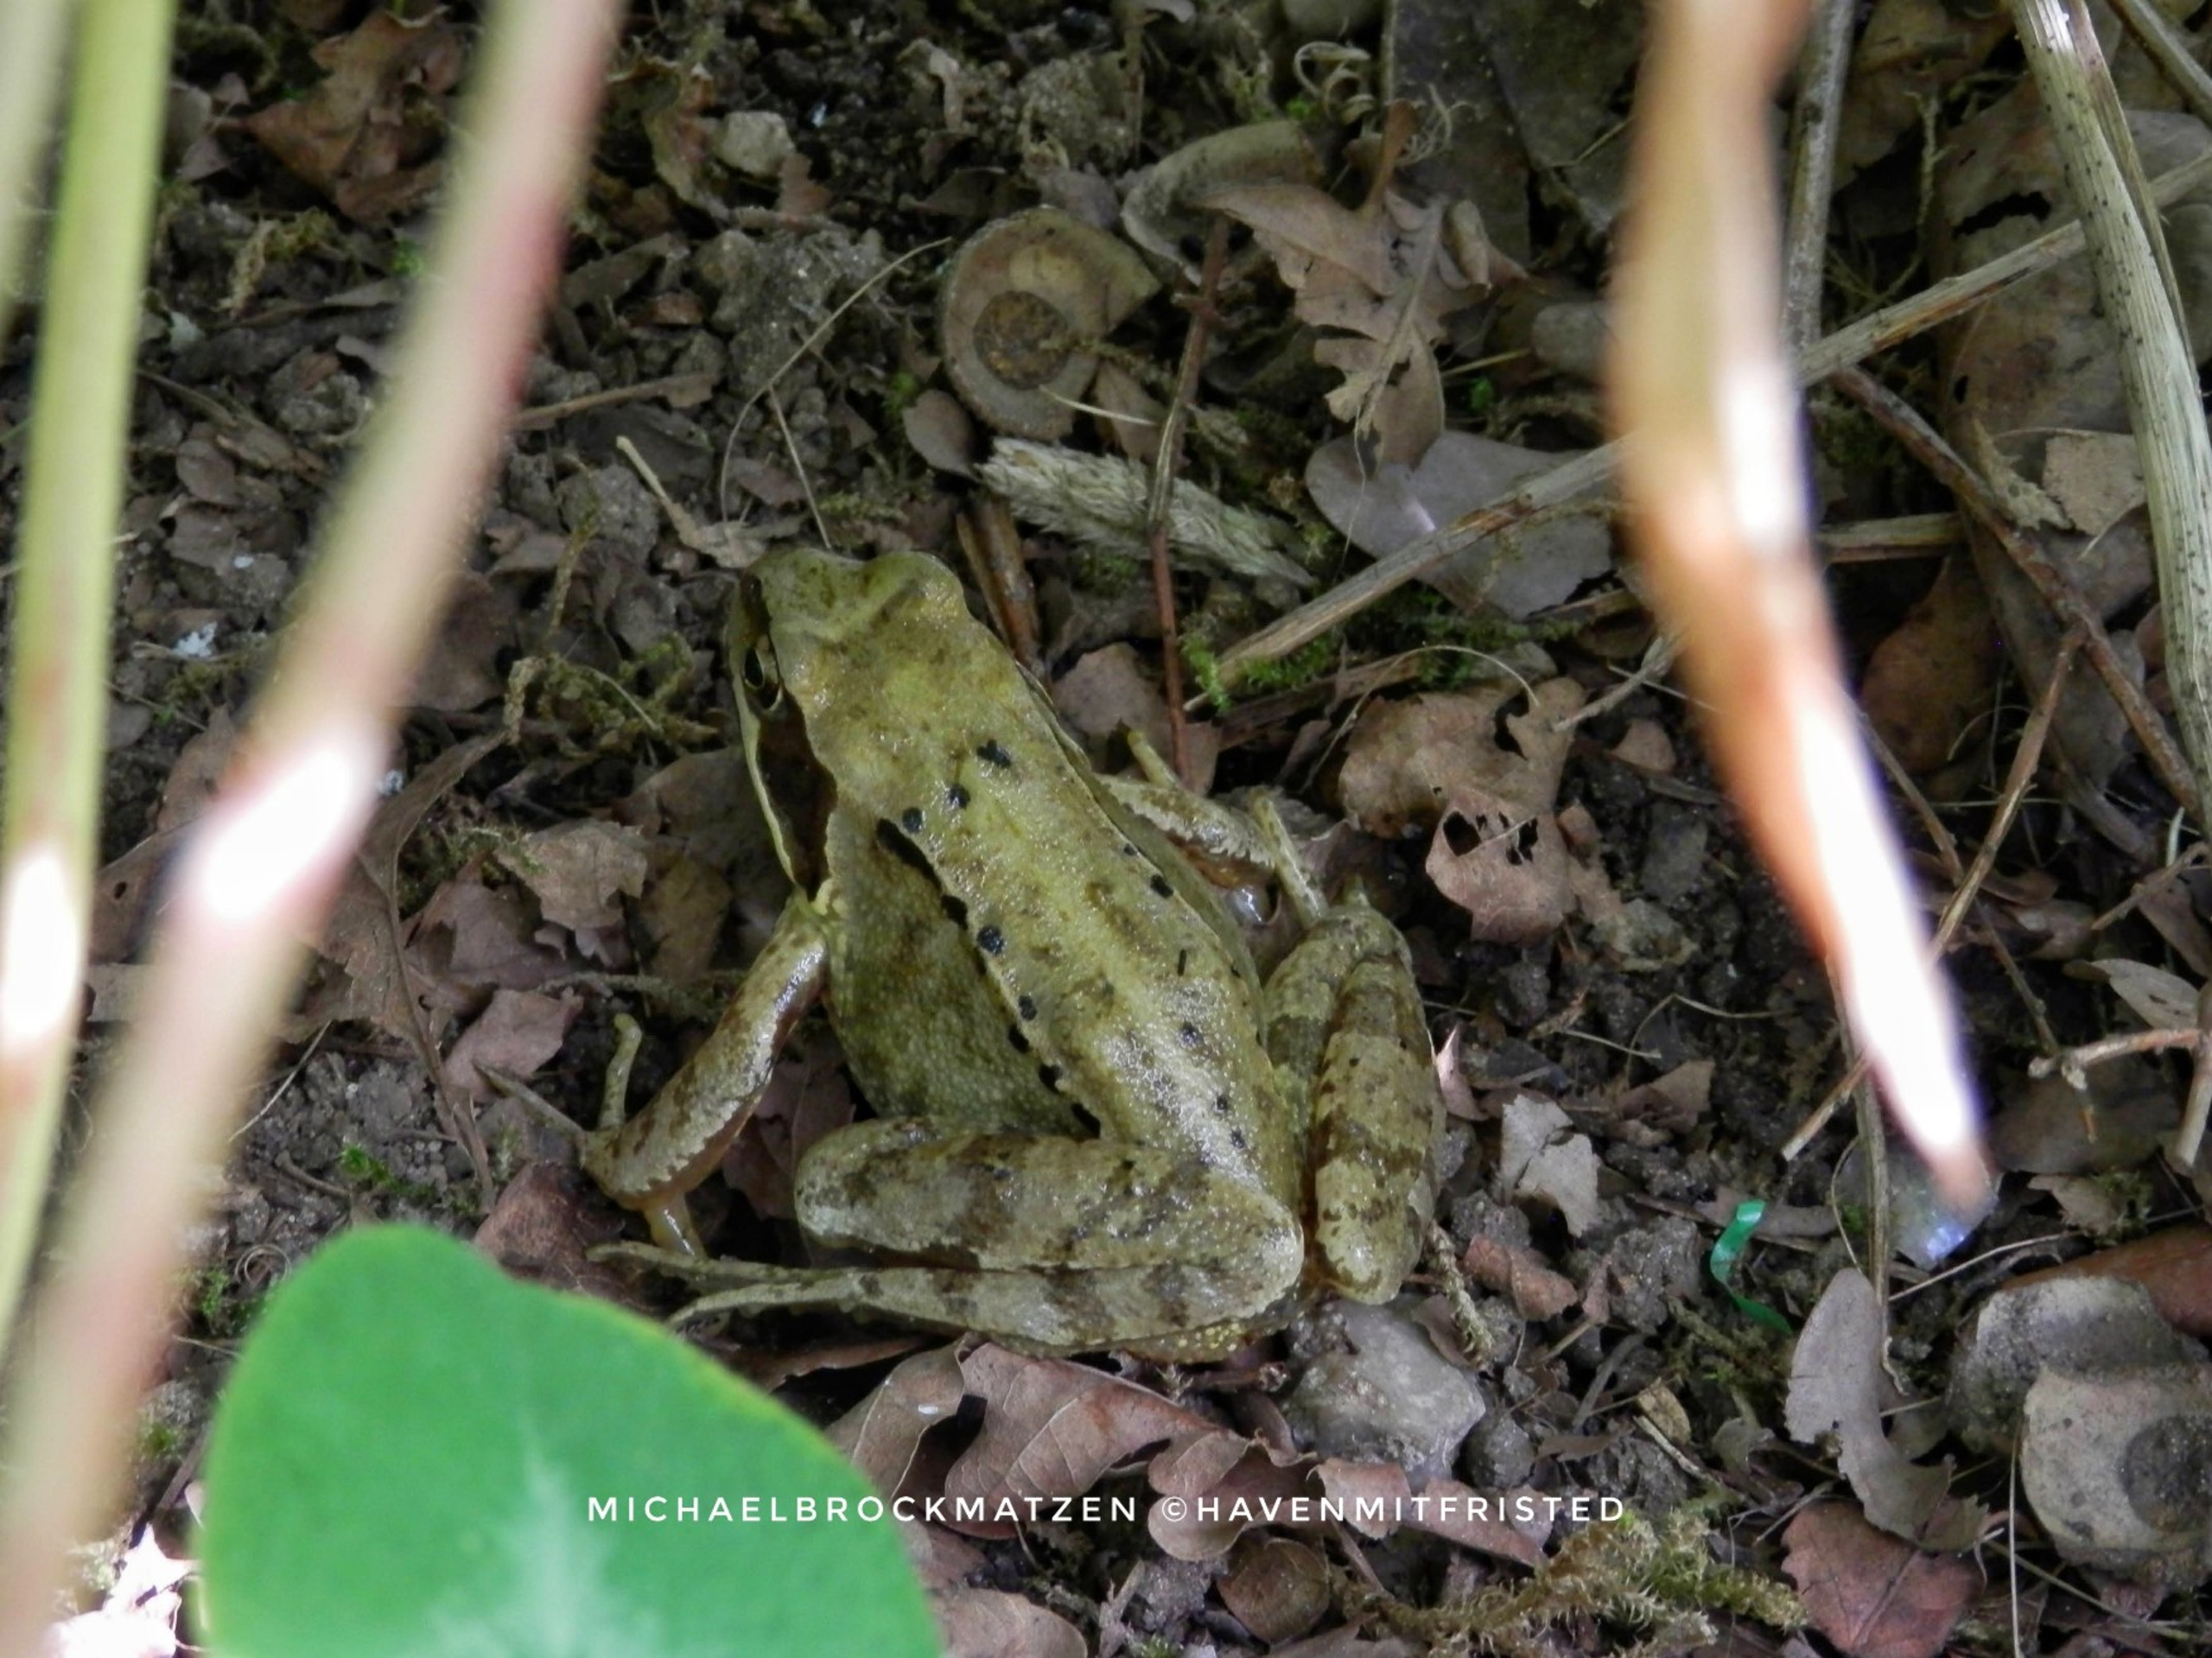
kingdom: Animalia
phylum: Chordata
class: Amphibia
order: Anura
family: Ranidae
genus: Rana
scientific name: Rana temporaria
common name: Butsnudet frø
